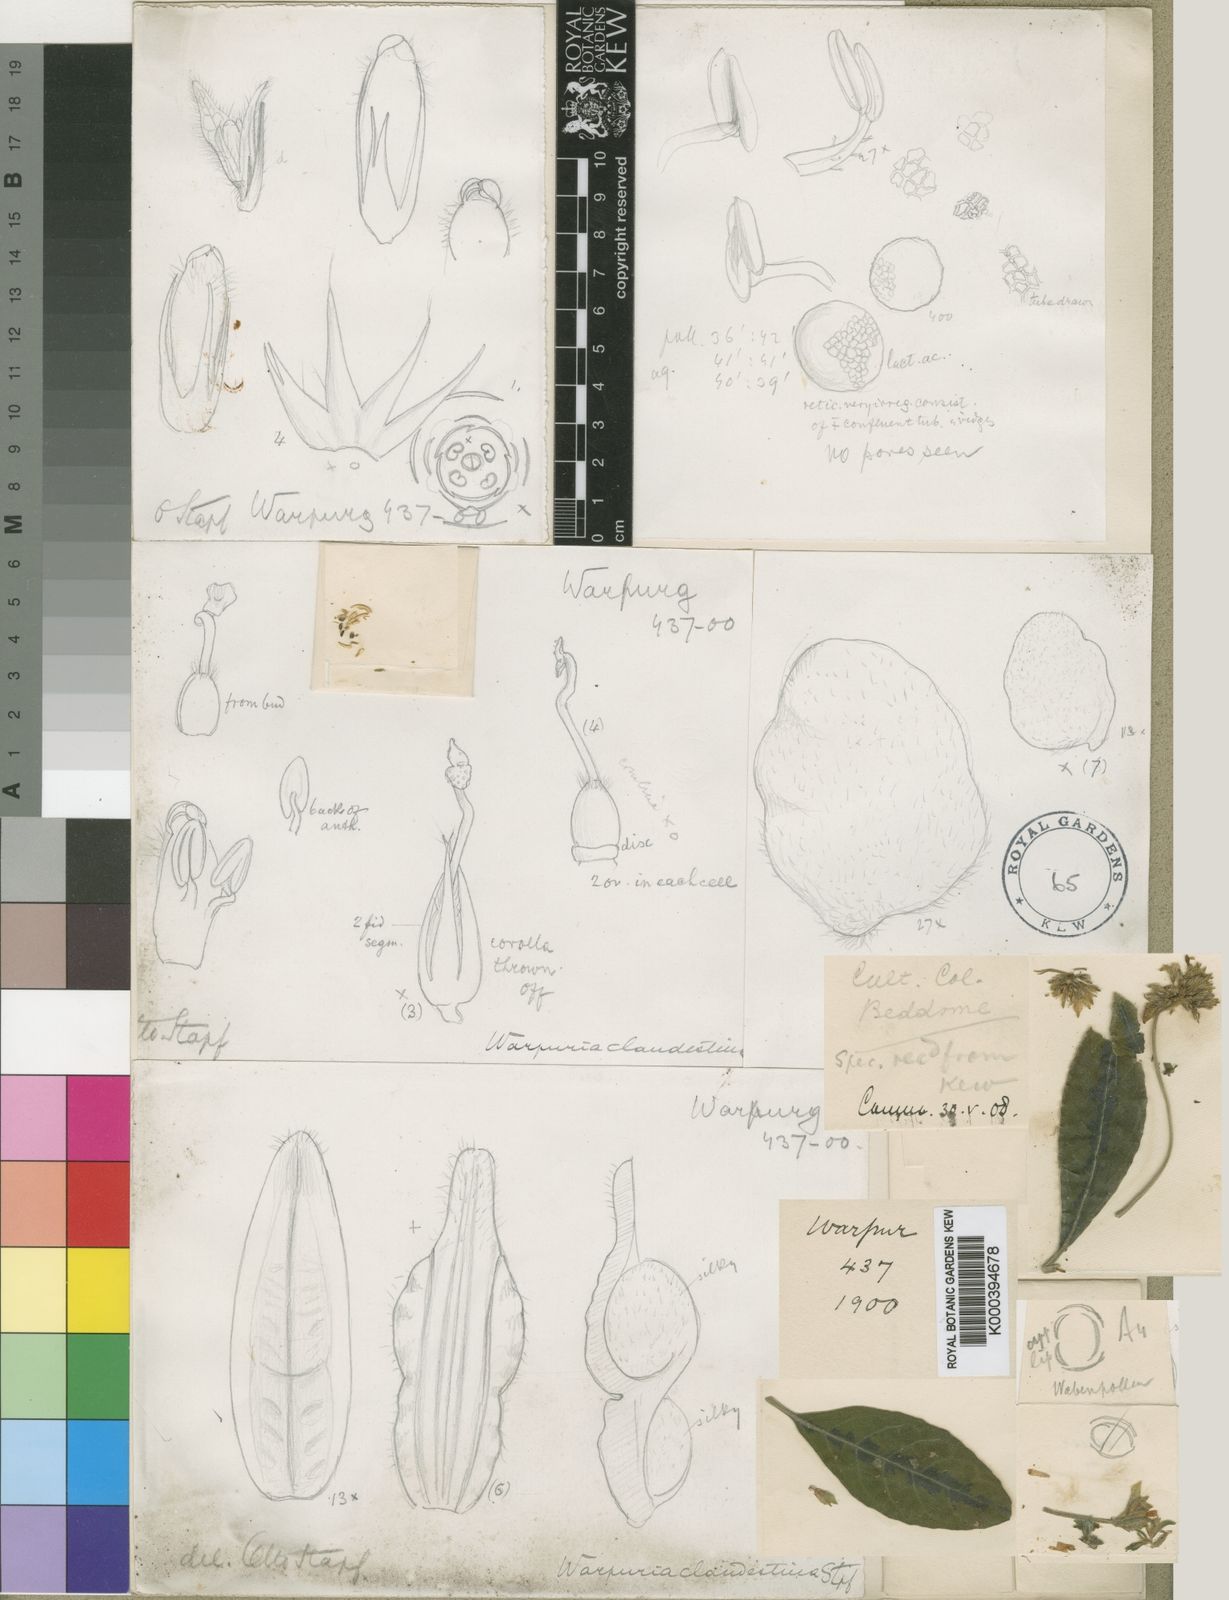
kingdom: Plantae
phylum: Tracheophyta
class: Magnoliopsida
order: Lamiales
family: Acanthaceae
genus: Podorungia
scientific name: Podorungia clandestina
